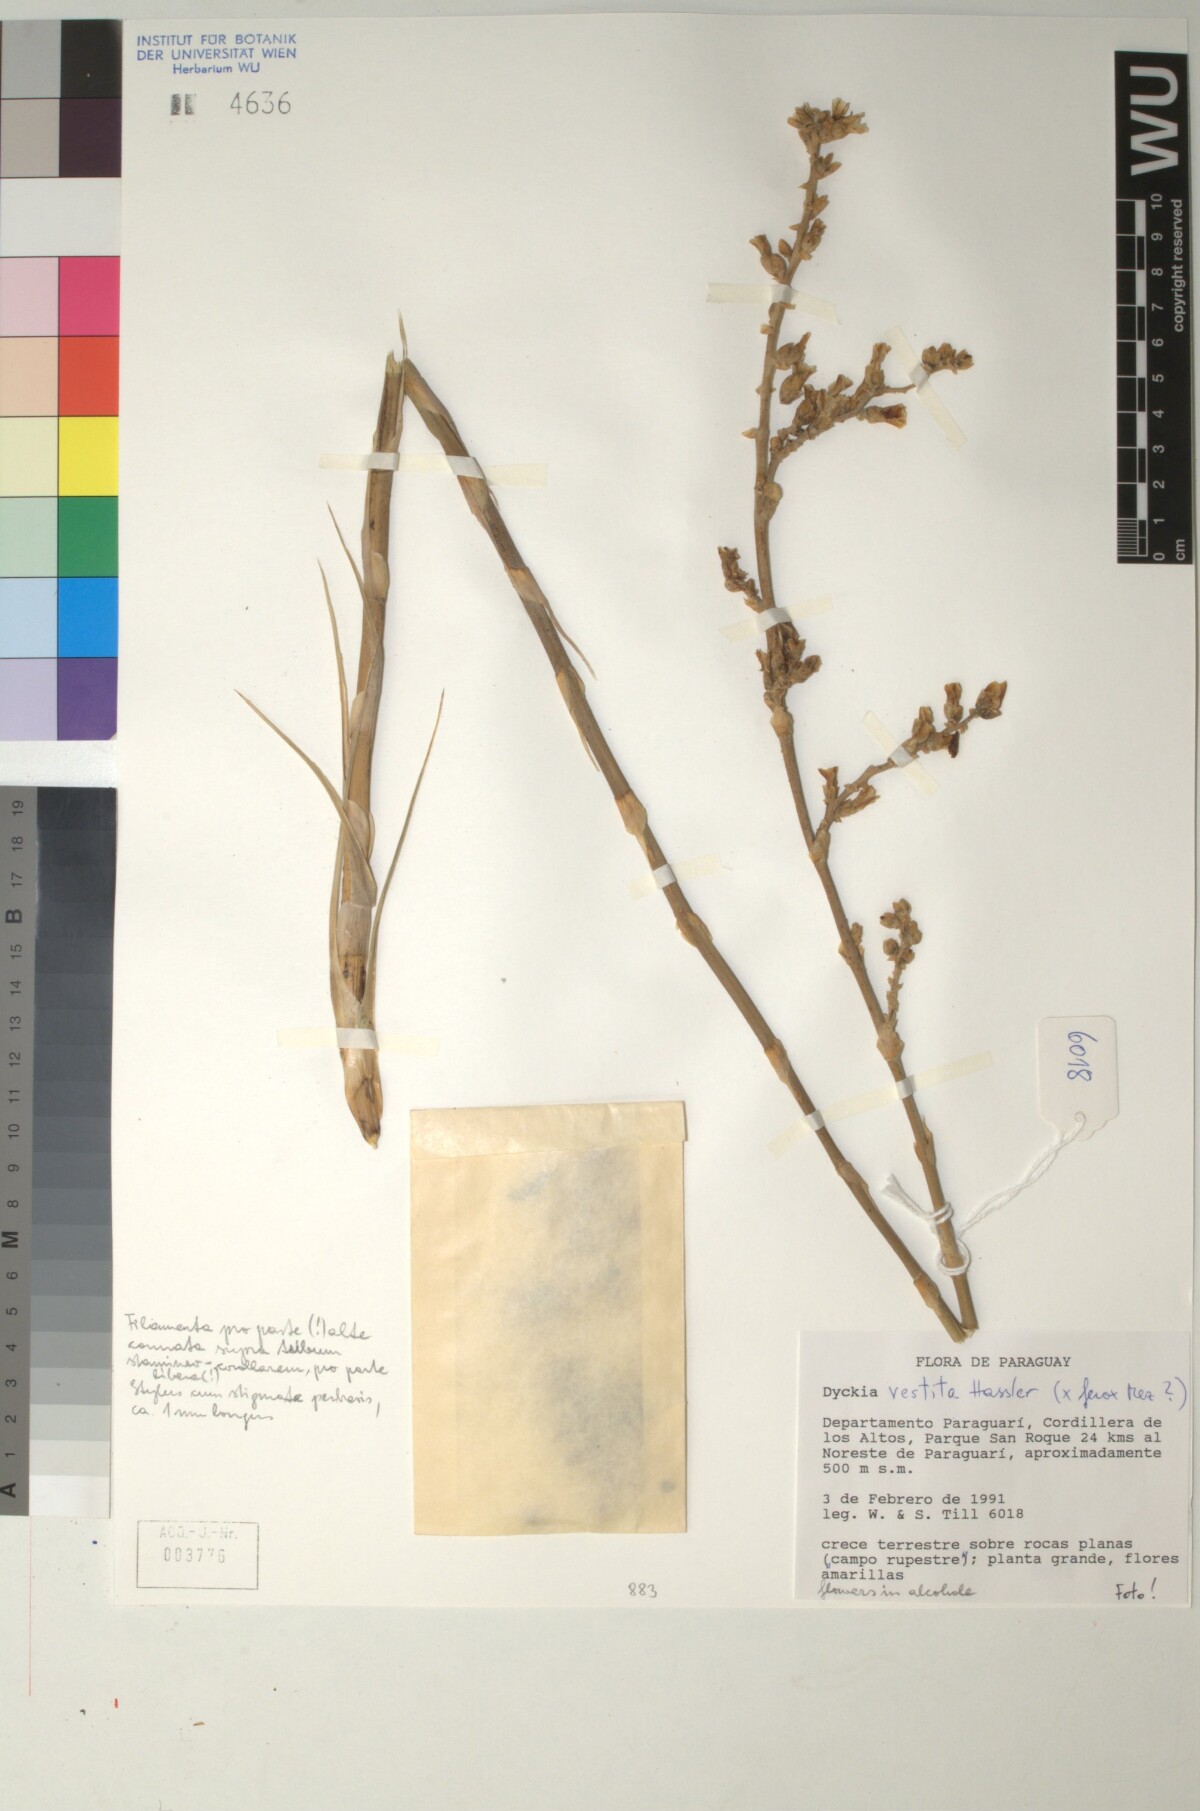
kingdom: Plantae
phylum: Tracheophyta
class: Liliopsida
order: Poales
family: Bromeliaceae
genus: Dyckia
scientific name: Dyckia vestita
